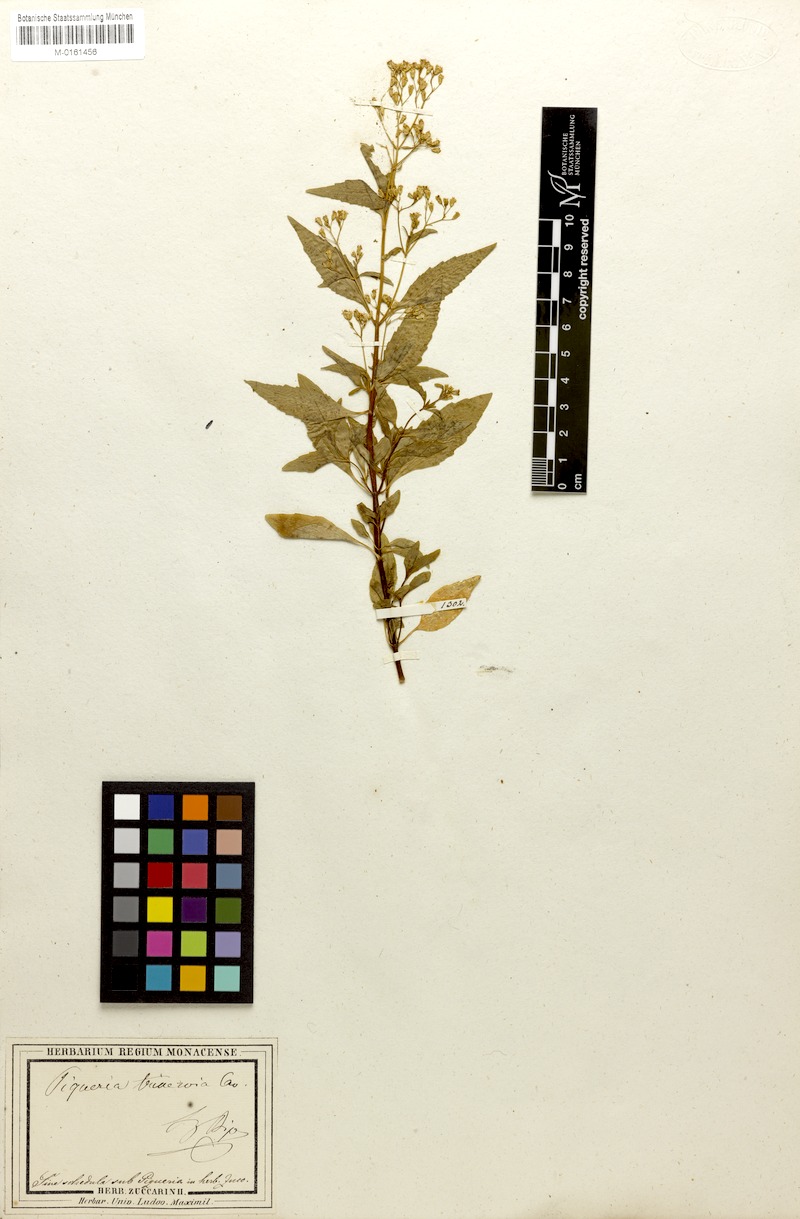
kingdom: Plantae
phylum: Tracheophyta
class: Magnoliopsida
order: Asterales
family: Asteraceae
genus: Piqueria
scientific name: Piqueria trinervia
